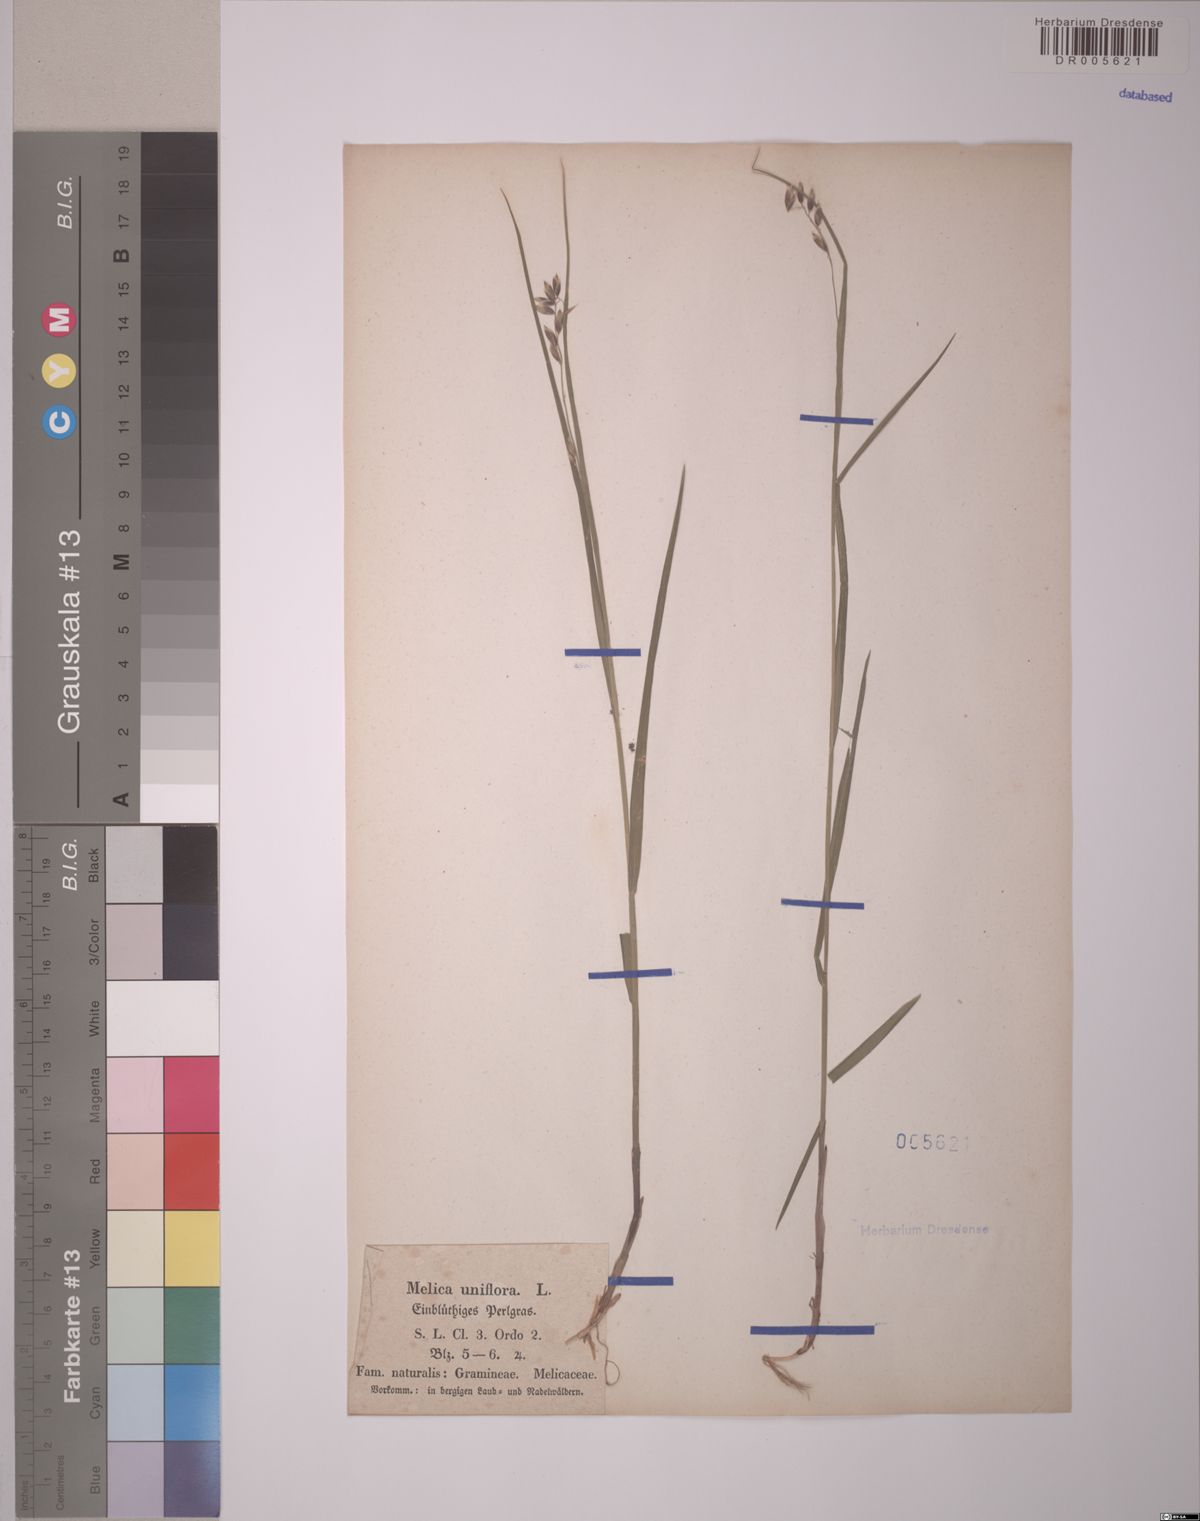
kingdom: Plantae
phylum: Tracheophyta
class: Liliopsida
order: Poales
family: Poaceae
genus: Melica
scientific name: Melica uniflora
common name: Wood melick
